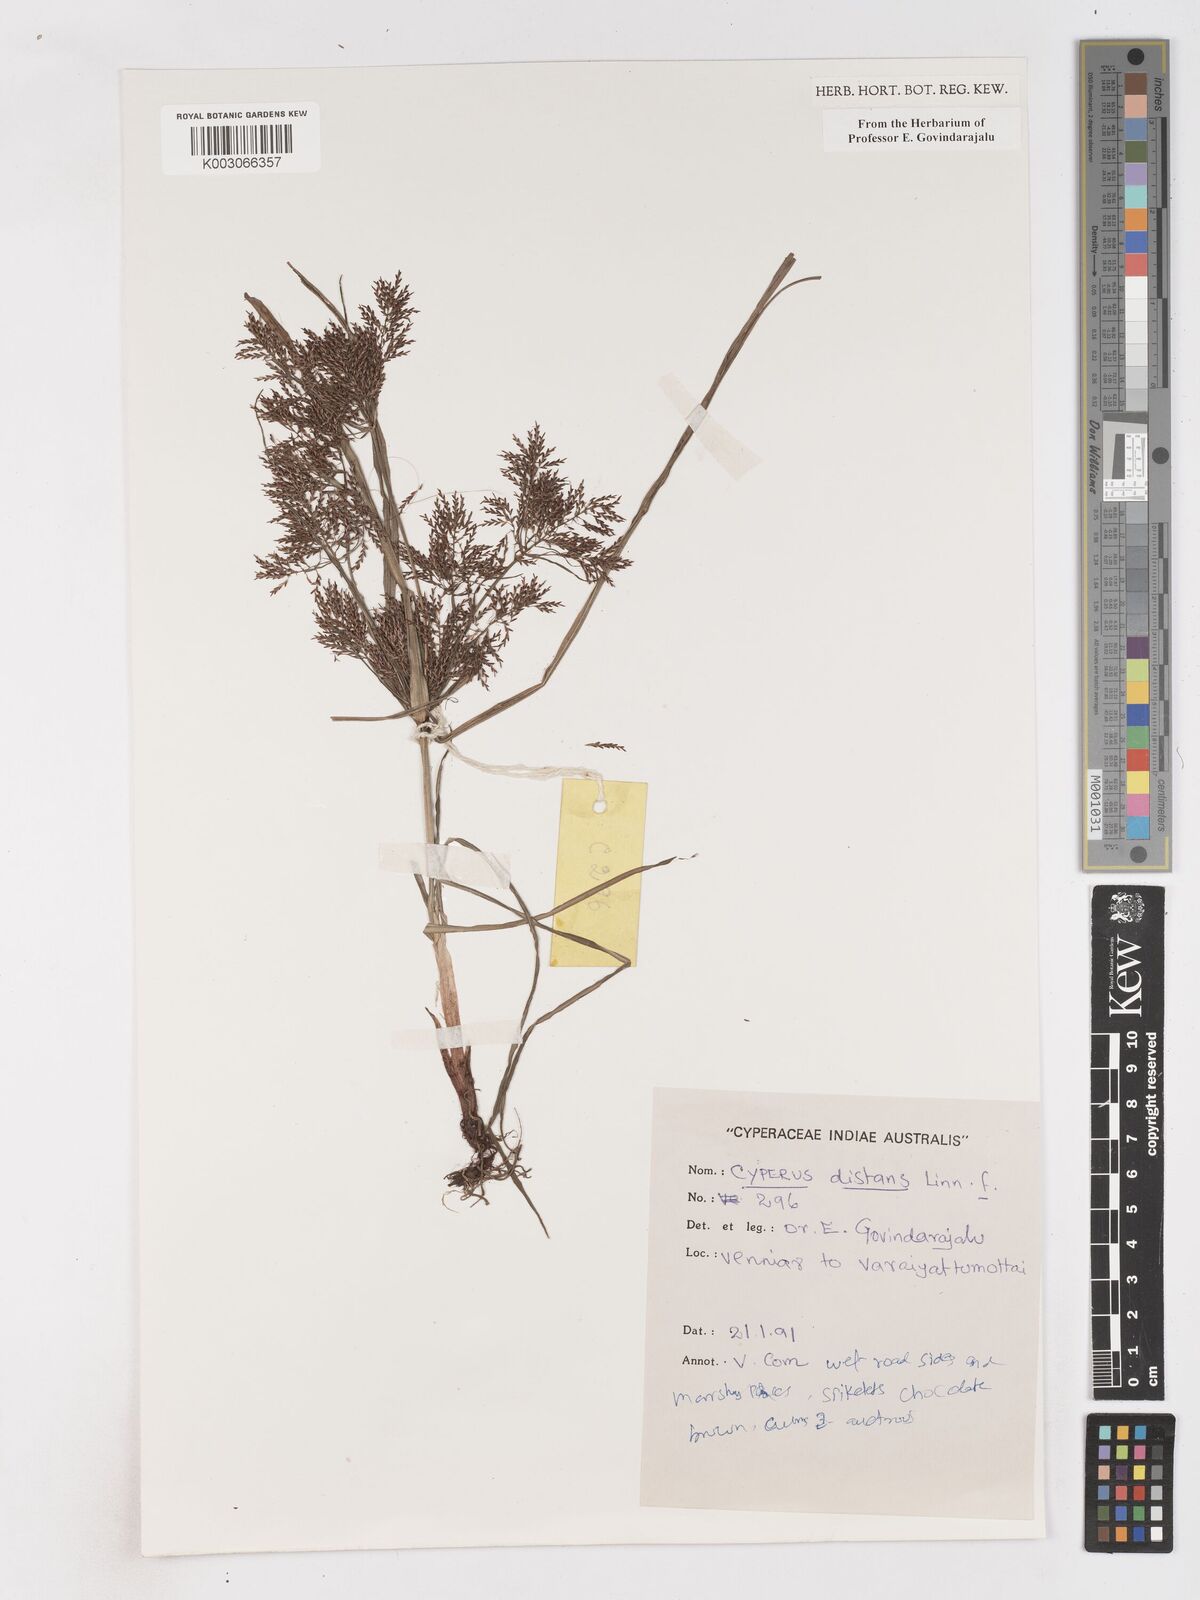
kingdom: Plantae
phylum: Tracheophyta
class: Liliopsida
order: Poales
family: Cyperaceae
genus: Cyperus
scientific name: Cyperus distans
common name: Slender cyperus
